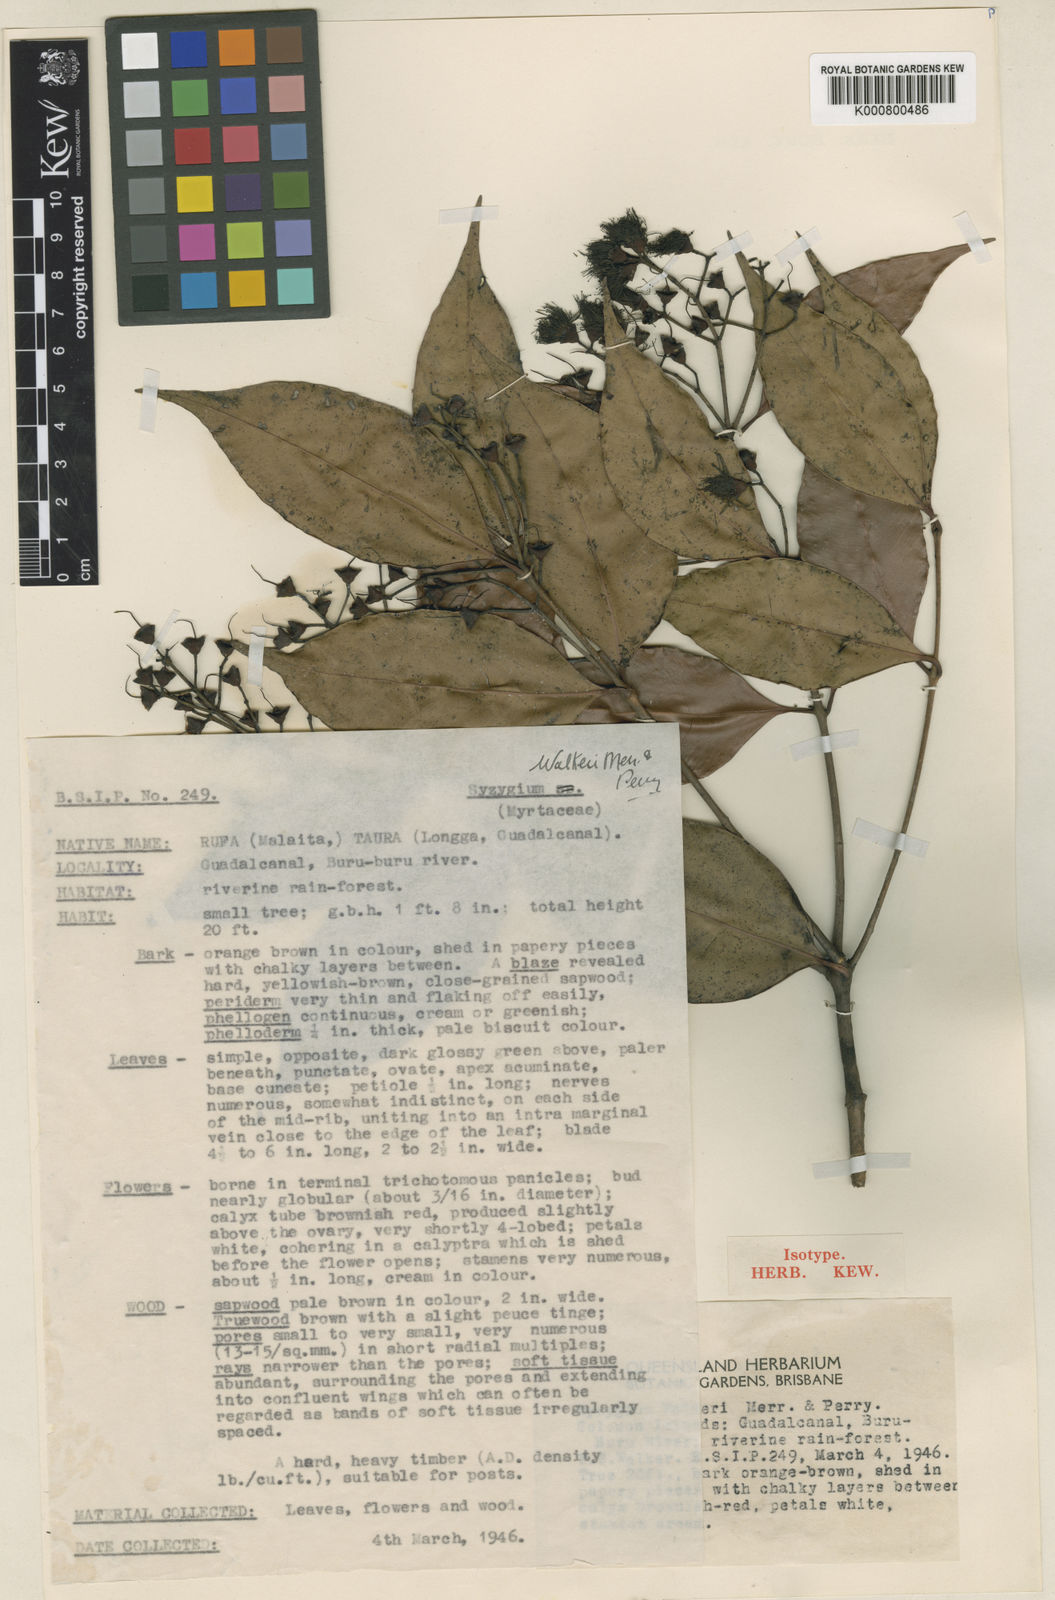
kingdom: Plantae
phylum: Tracheophyta
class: Magnoliopsida
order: Myrtales
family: Myrtaceae
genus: Syzygium
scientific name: Syzygium walkeri
